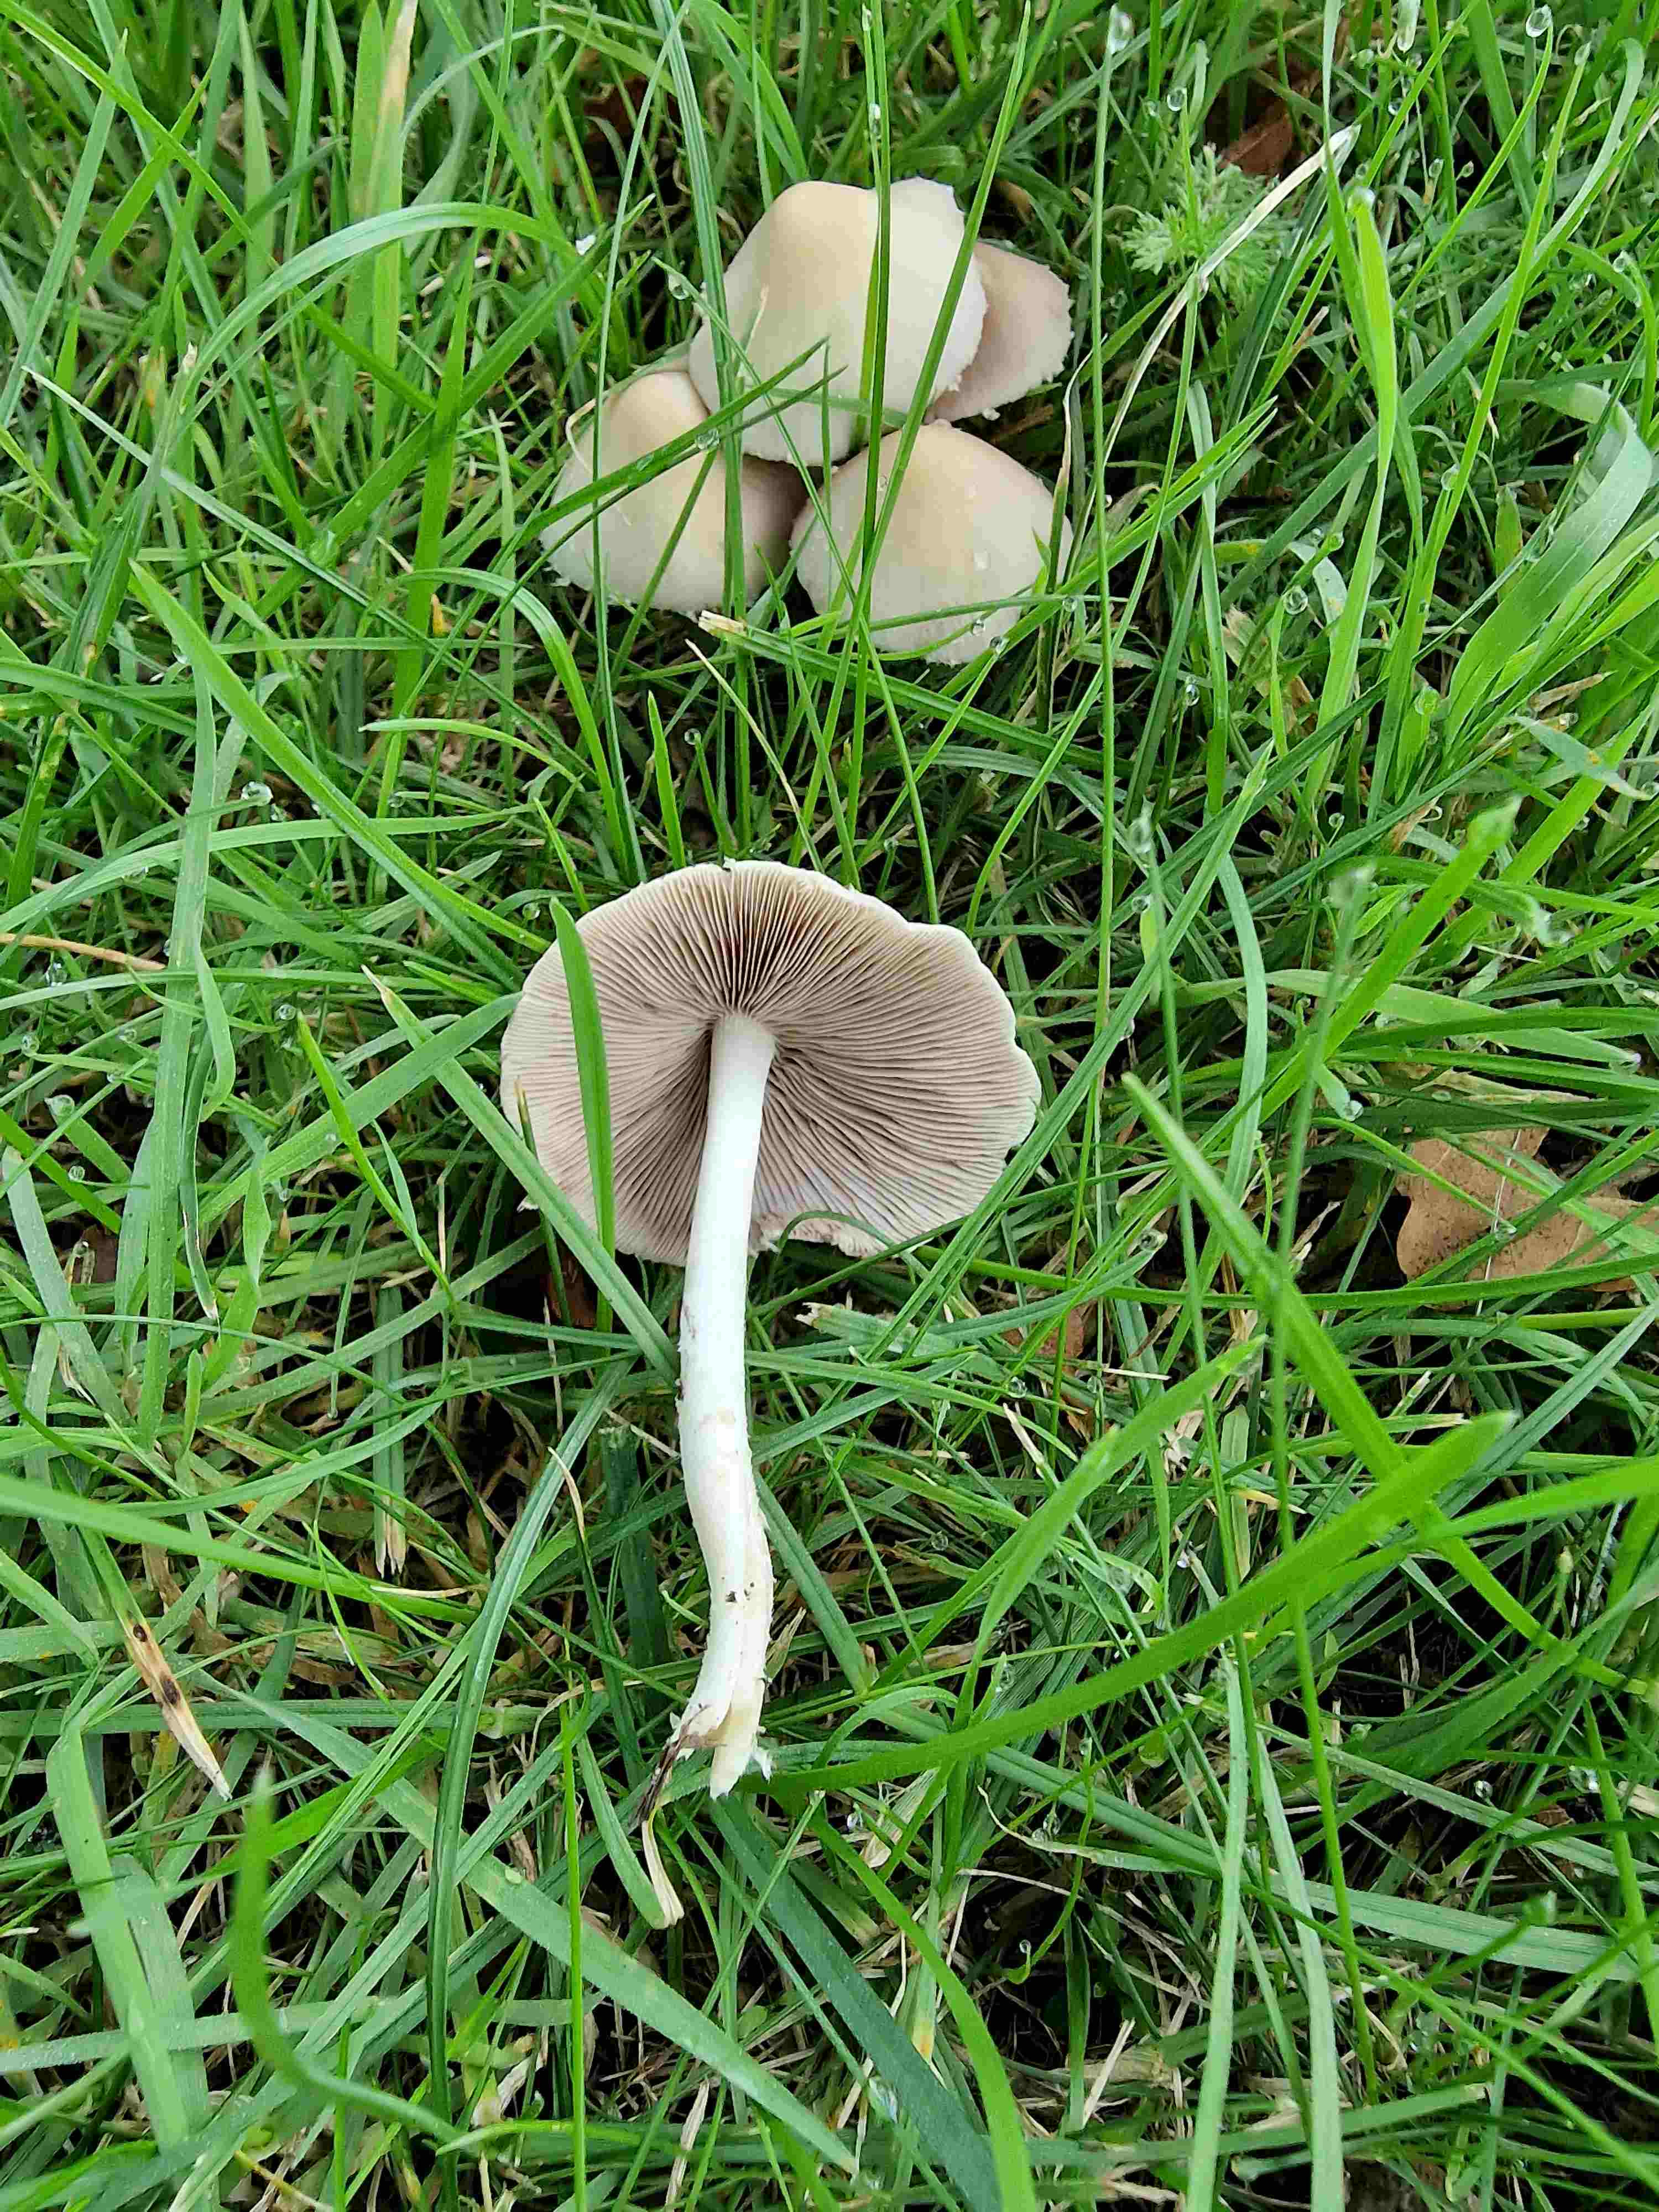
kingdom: Fungi
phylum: Basidiomycota
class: Agaricomycetes
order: Agaricales
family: Psathyrellaceae
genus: Candolleomyces
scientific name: Candolleomyces candolleanus
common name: Candolles mørkhat
